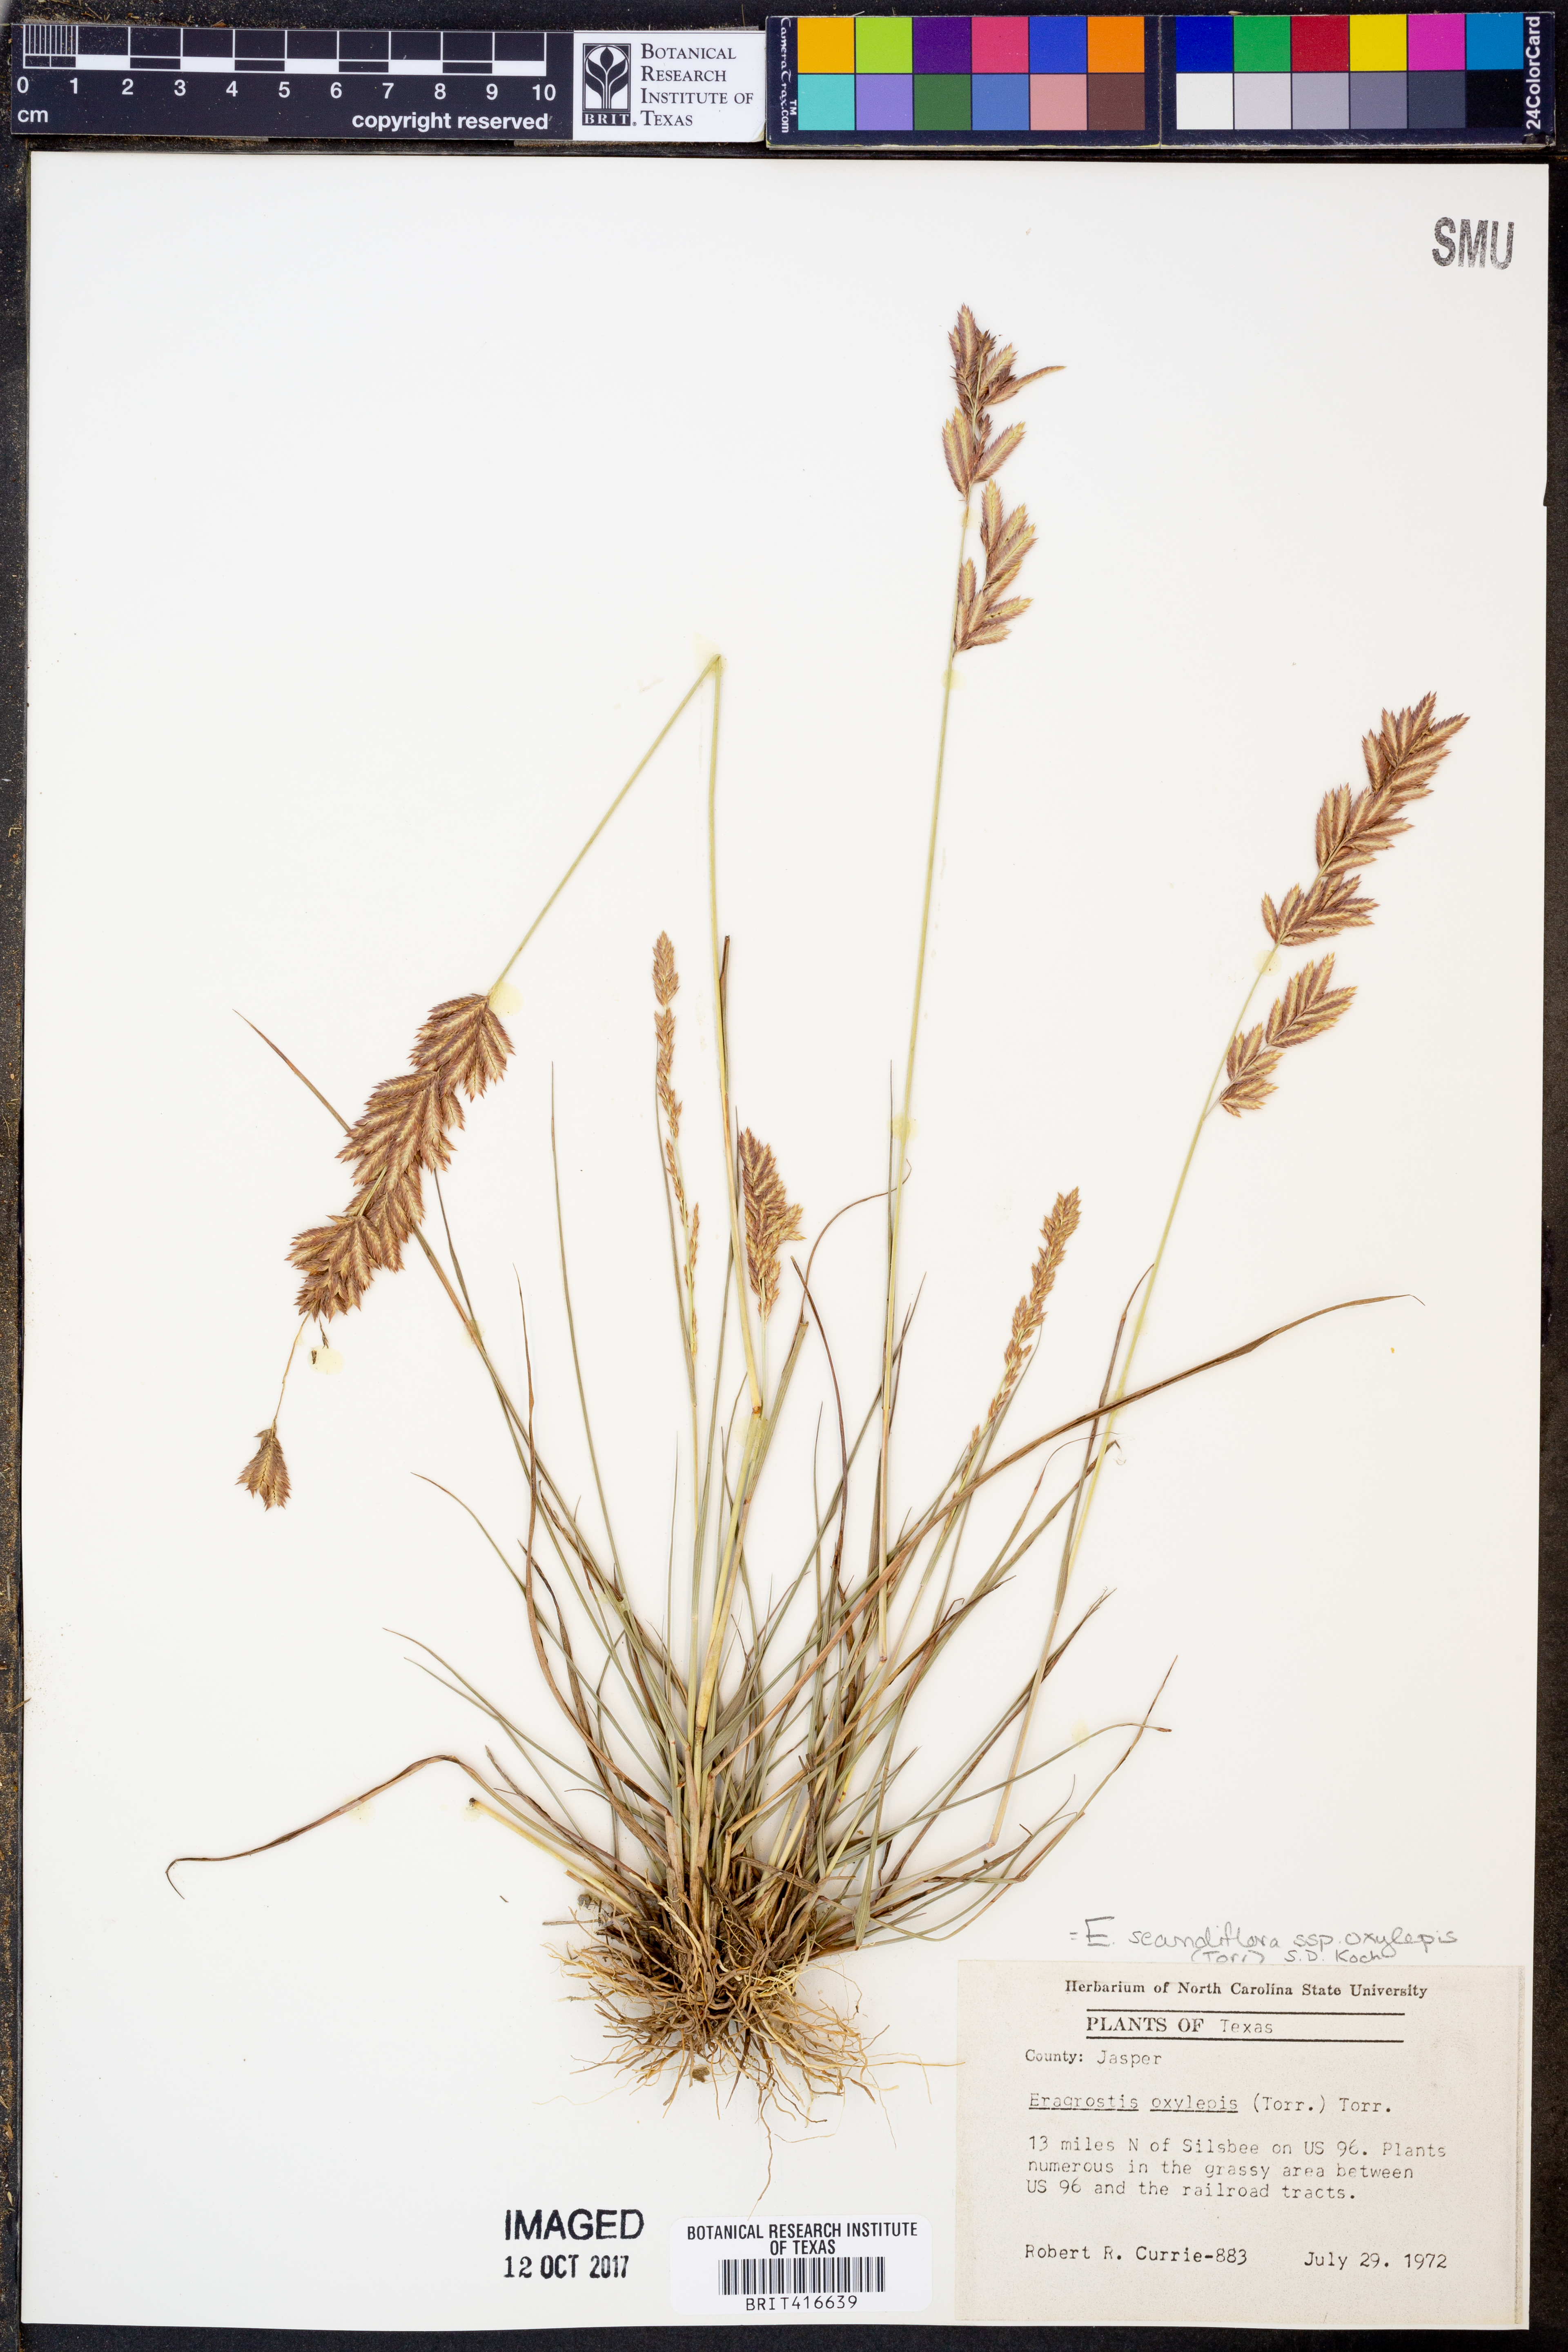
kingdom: Plantae
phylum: Tracheophyta
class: Liliopsida
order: Poales
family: Poaceae
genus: Eragrostis
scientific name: Eragrostis secundiflora
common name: Red love grass
